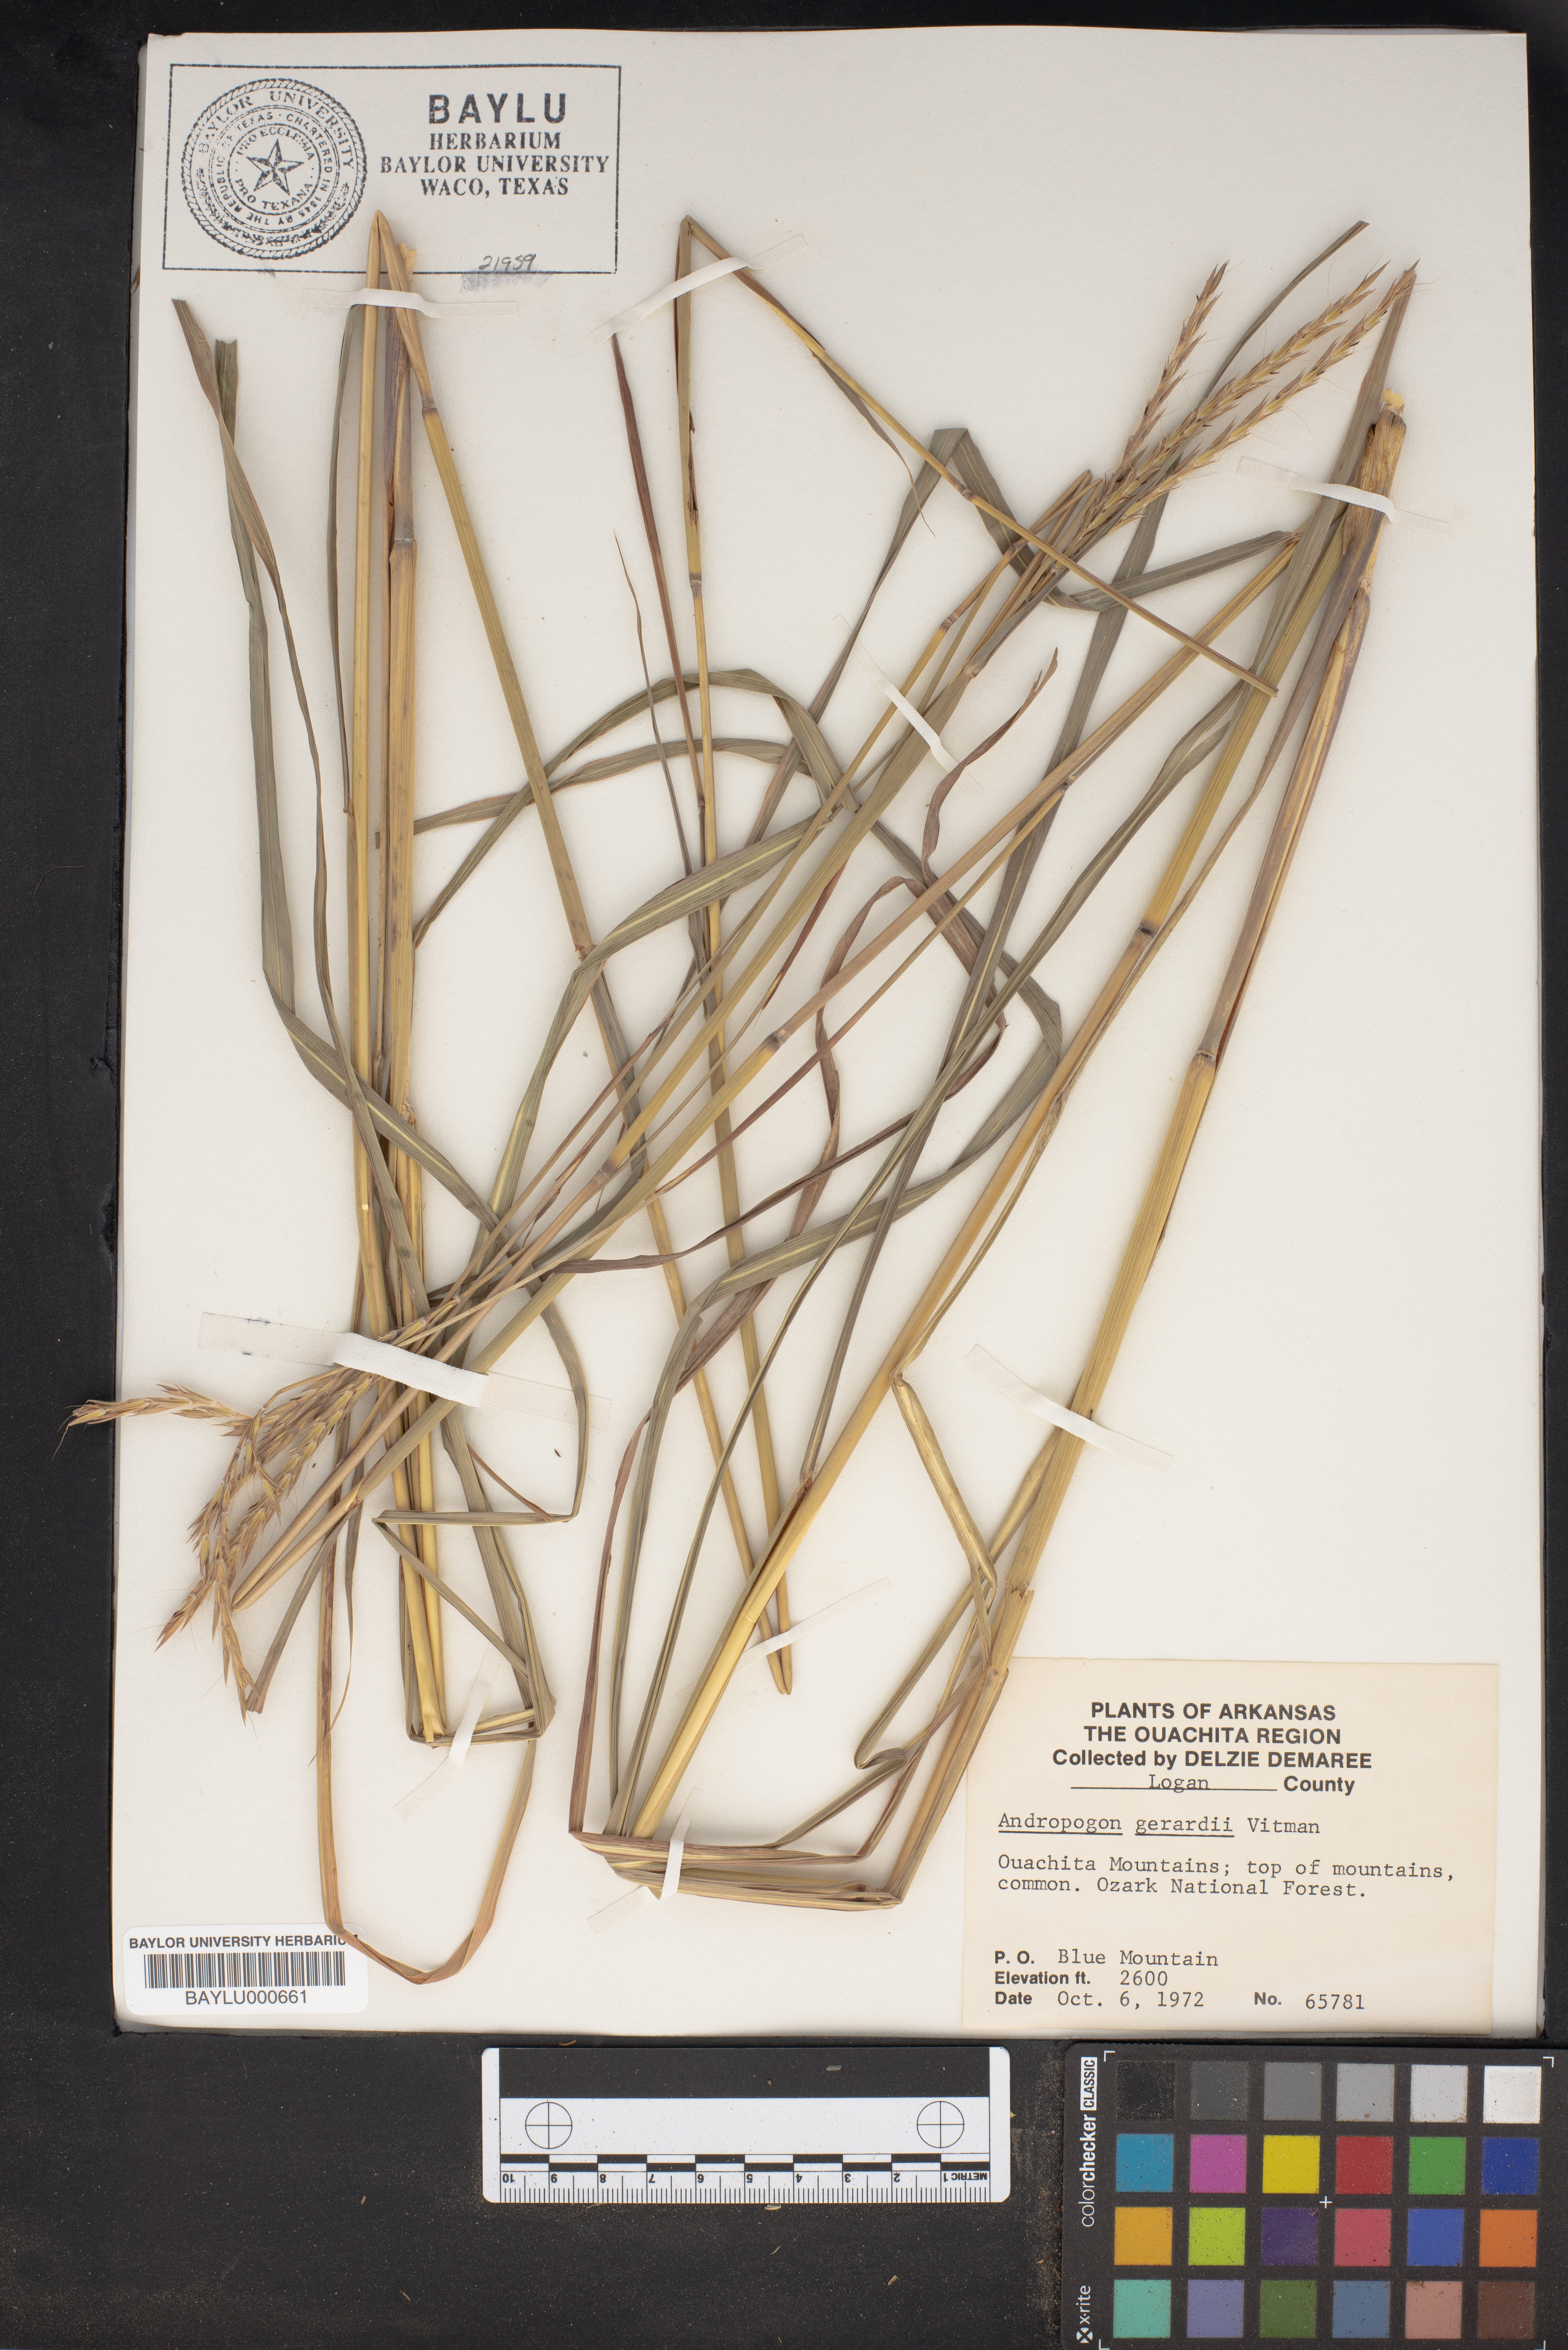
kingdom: Plantae
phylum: Tracheophyta
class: Liliopsida
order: Poales
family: Poaceae
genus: Andropogon
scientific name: Andropogon gerardi
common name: Big bluestem
